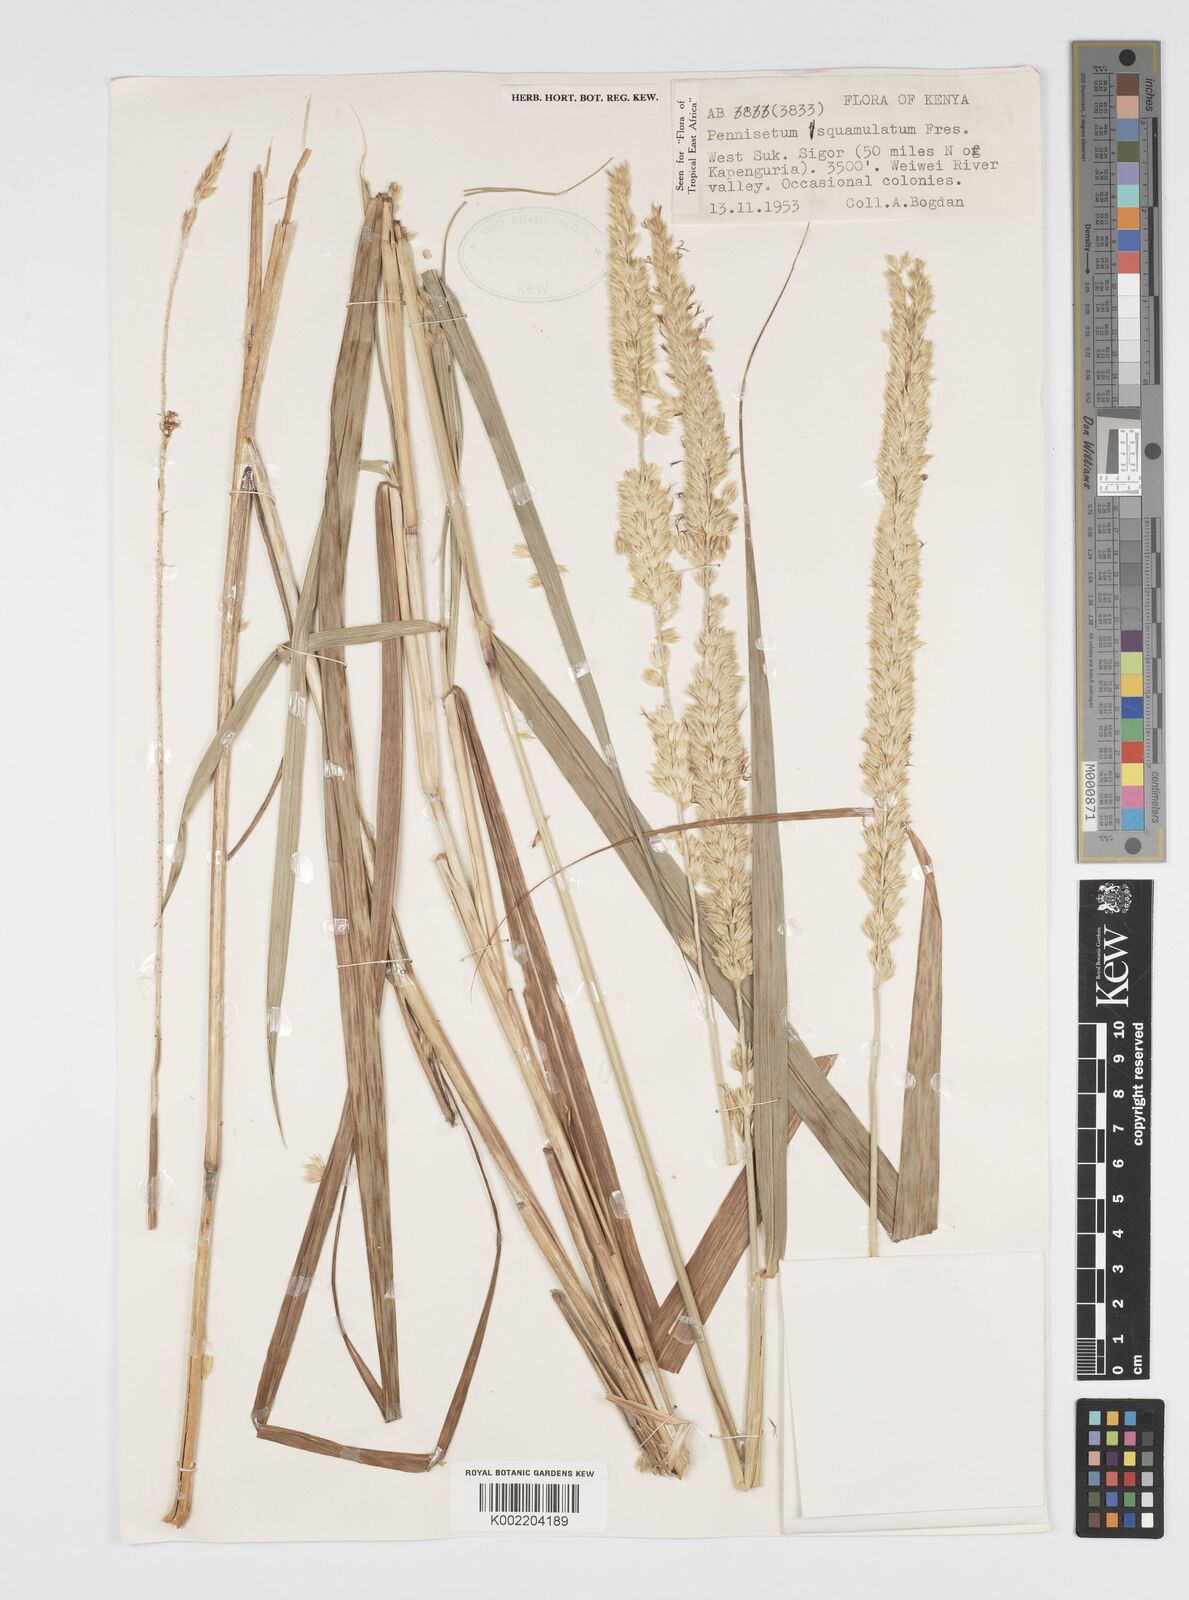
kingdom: Plantae
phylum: Tracheophyta
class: Liliopsida
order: Poales
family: Poaceae
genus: Cenchrus
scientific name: Cenchrus squamulatus
